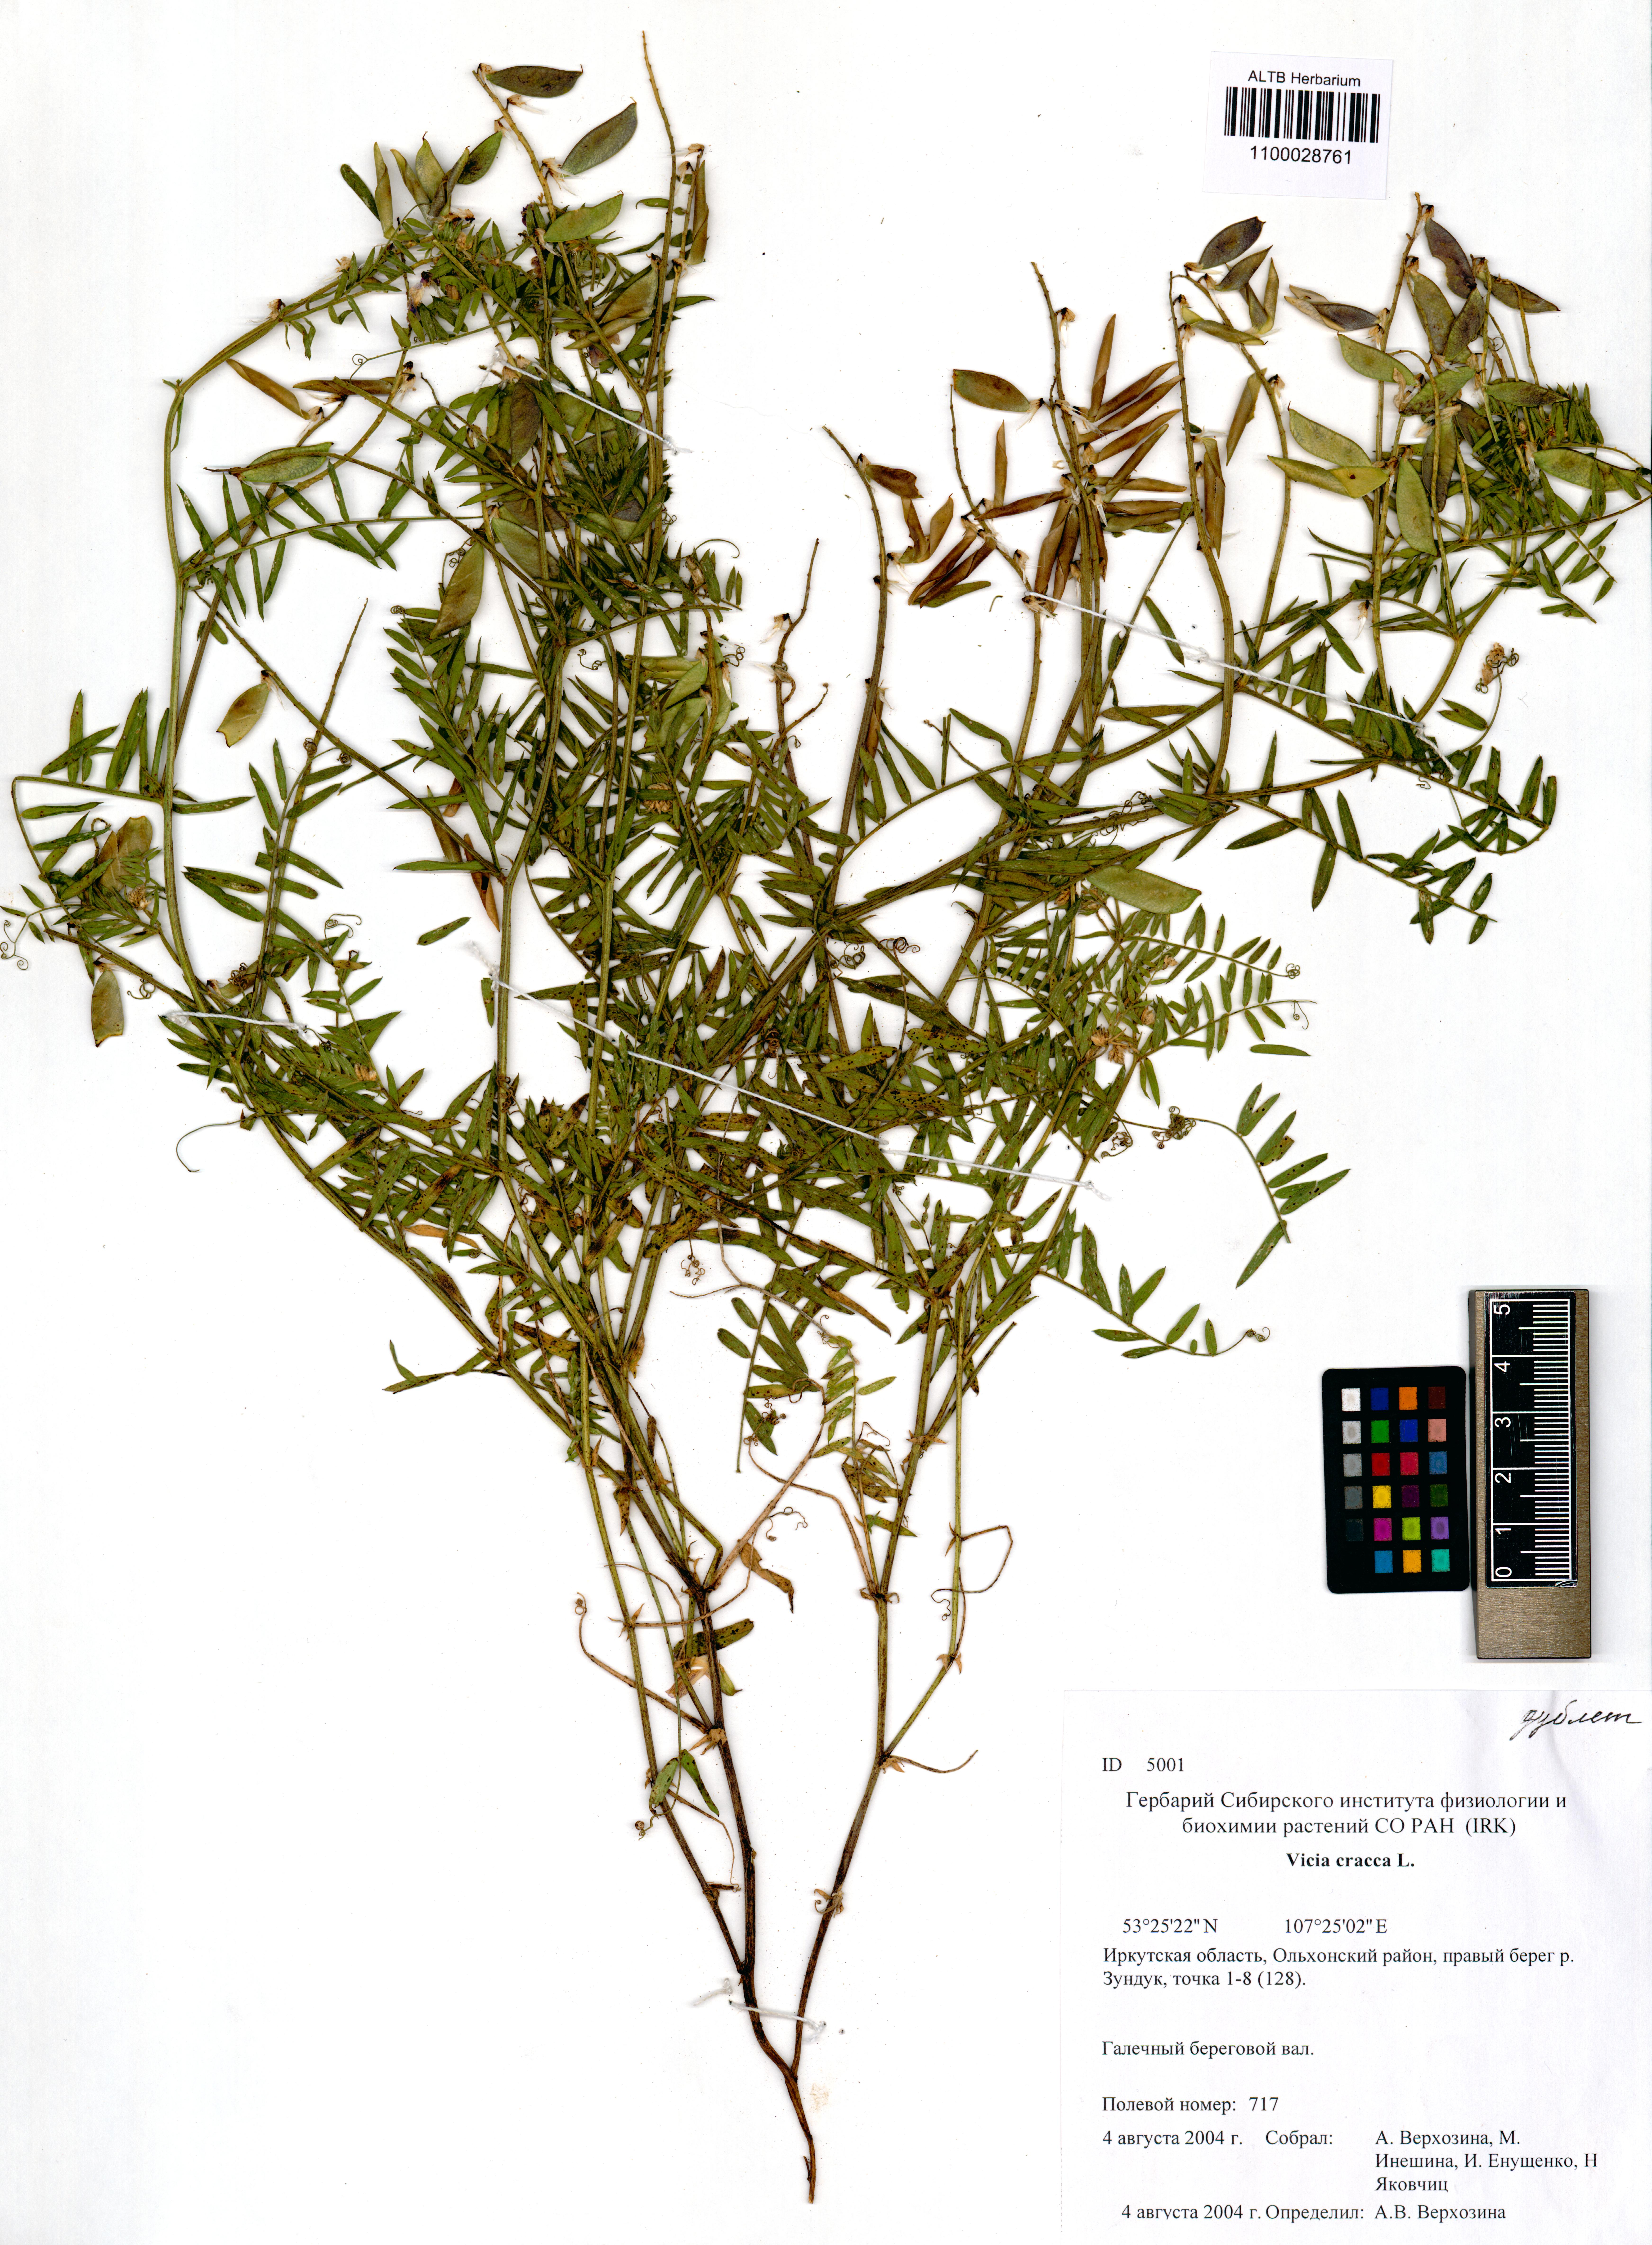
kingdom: Plantae
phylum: Tracheophyta
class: Magnoliopsida
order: Fabales
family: Fabaceae
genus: Vicia
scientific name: Vicia cracca
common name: Bird vetch
